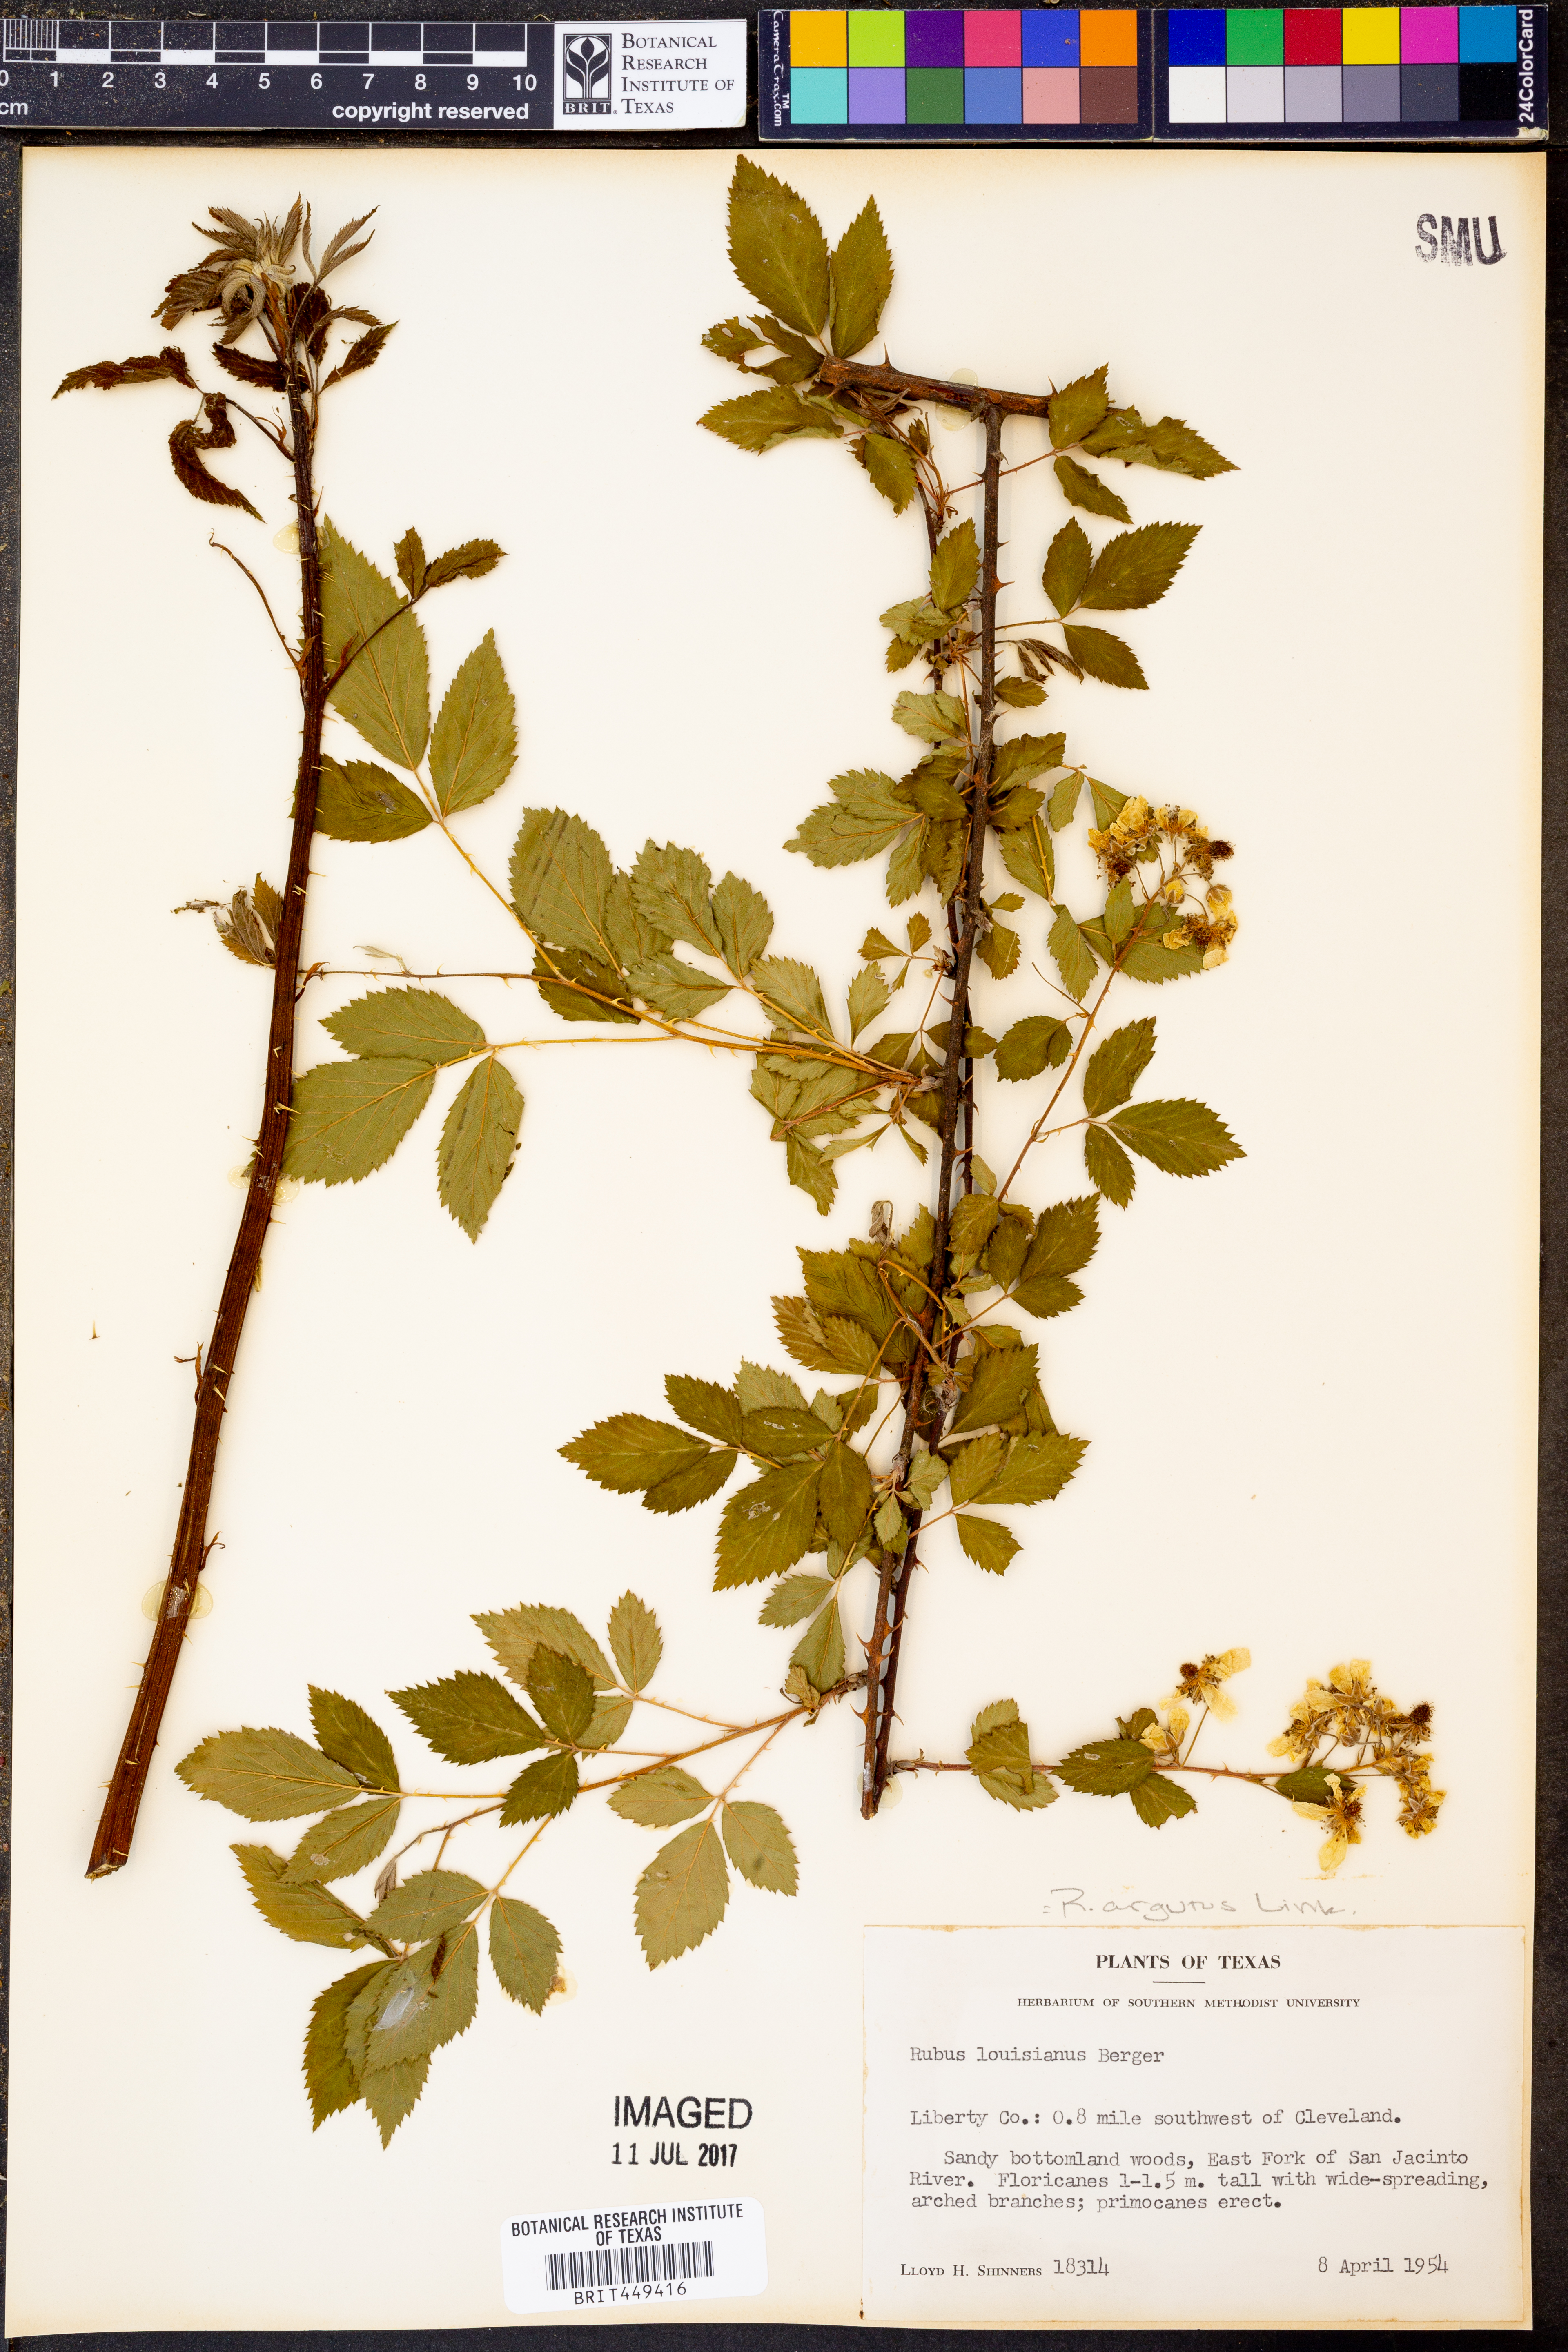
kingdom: Plantae
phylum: Tracheophyta
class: Magnoliopsida
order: Rosales
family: Rosaceae
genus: Rubus
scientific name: Rubus argutus
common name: Sawtooth blackberry
